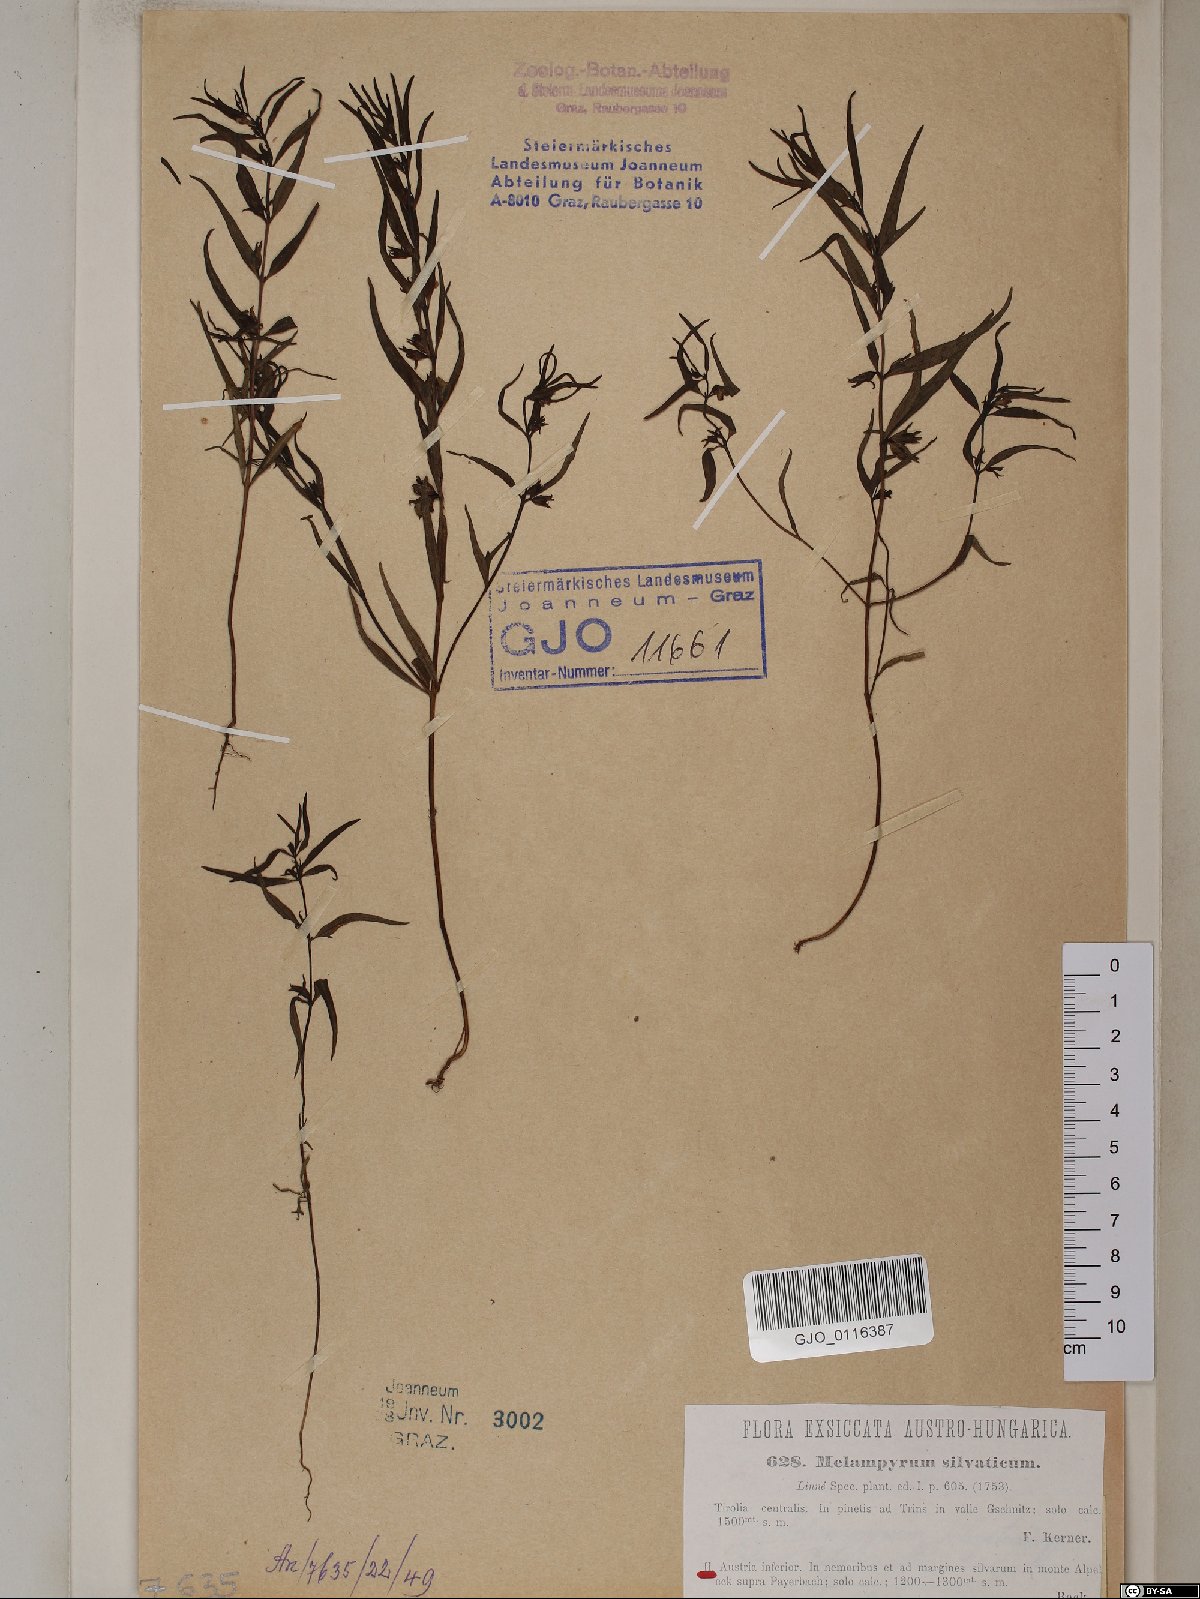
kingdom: Plantae
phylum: Tracheophyta
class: Magnoliopsida
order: Lamiales
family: Orobanchaceae
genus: Melampyrum
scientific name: Melampyrum sylvaticum
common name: Small cow-wheat
